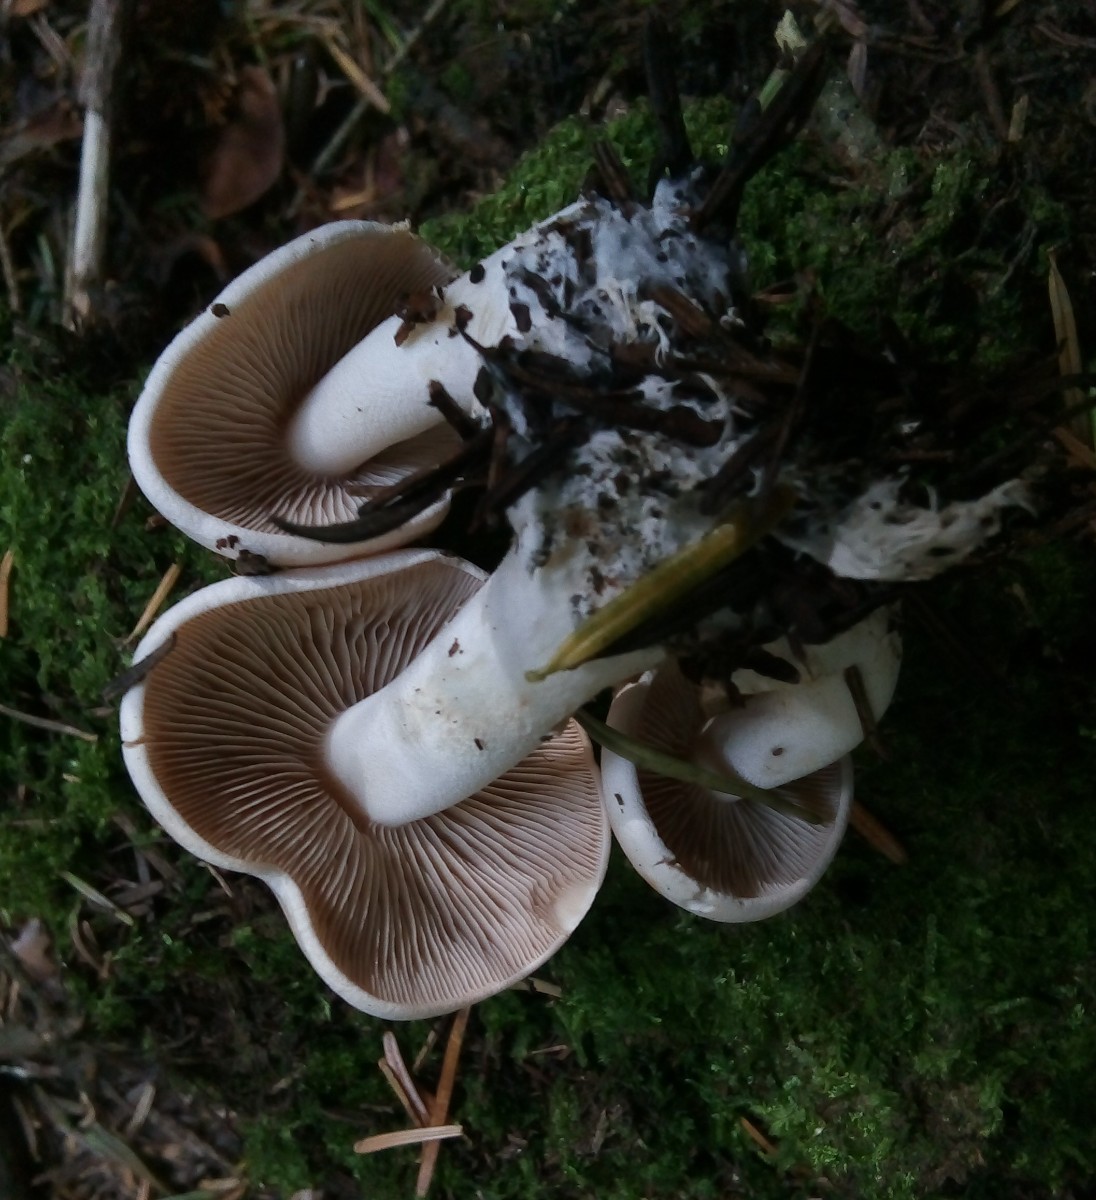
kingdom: Fungi
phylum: Basidiomycota
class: Agaricomycetes
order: Agaricales
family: Hymenogastraceae
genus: Hebeloma
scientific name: Hebeloma
